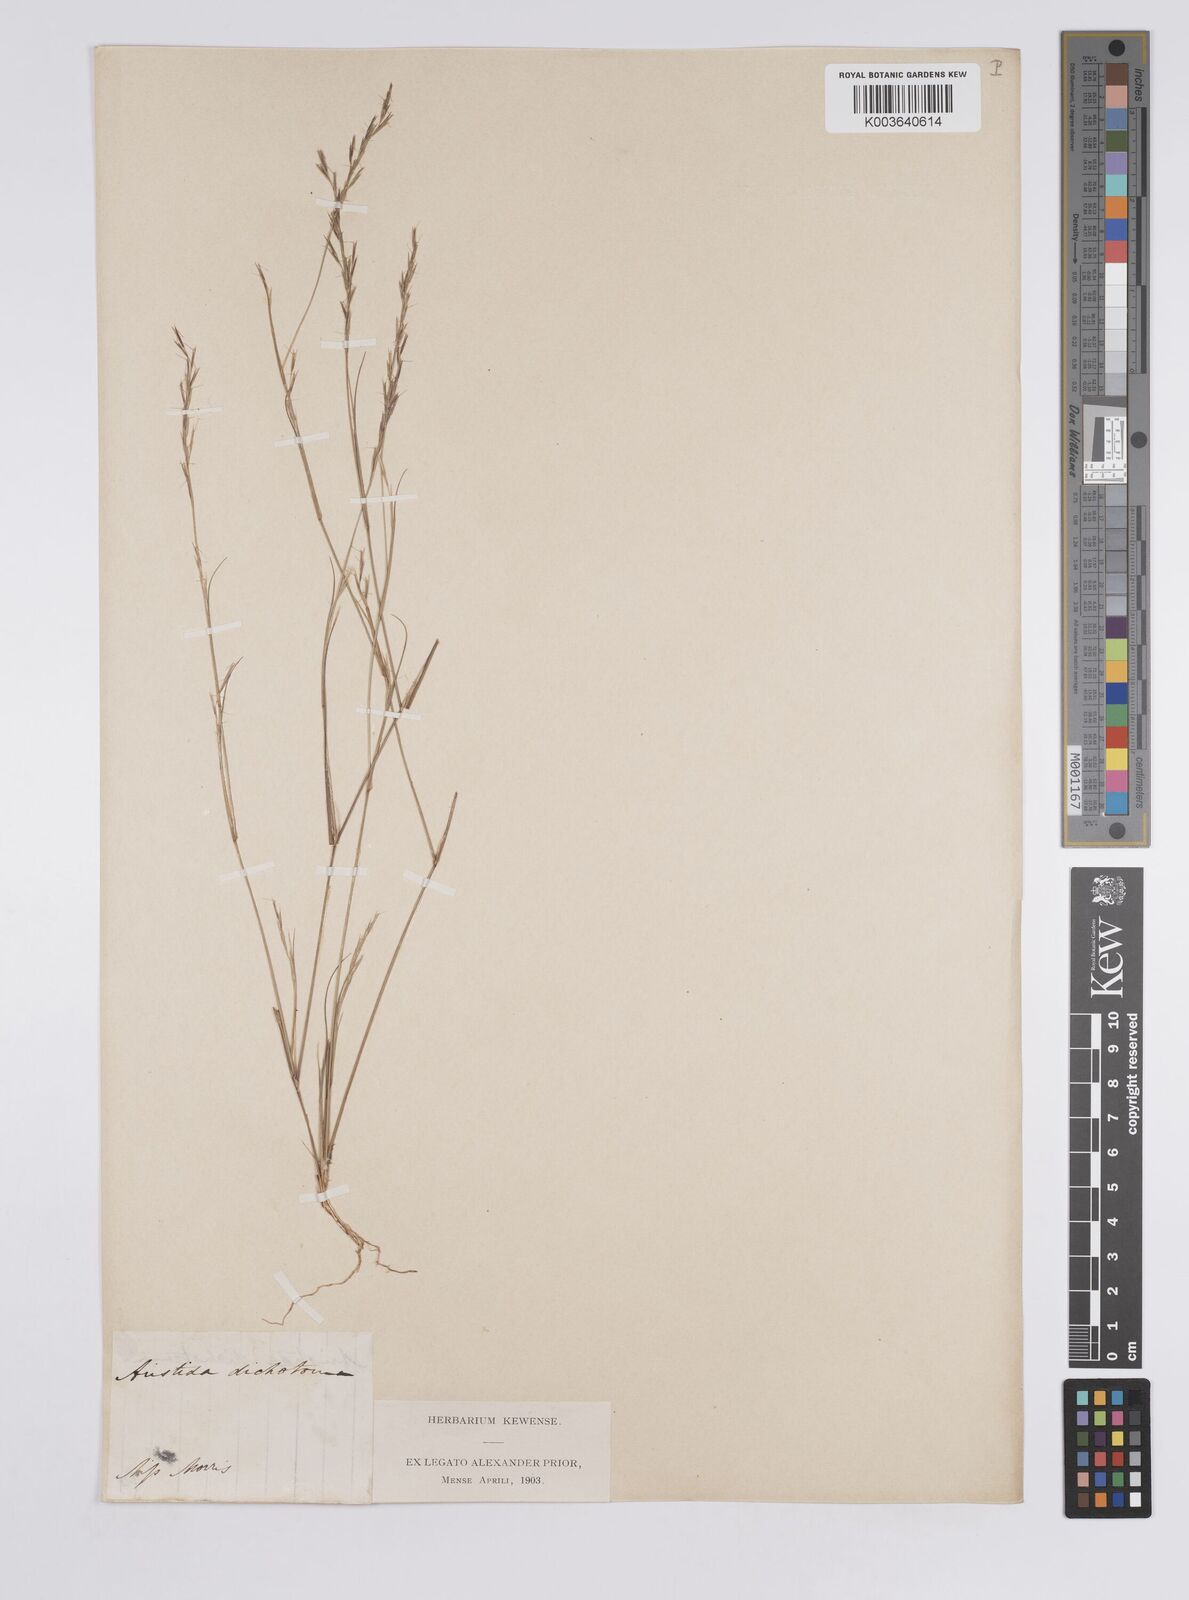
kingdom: Plantae
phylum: Tracheophyta
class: Liliopsida
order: Poales
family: Poaceae
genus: Aristida
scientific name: Aristida dichotoma
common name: Churchmouse three-awn
